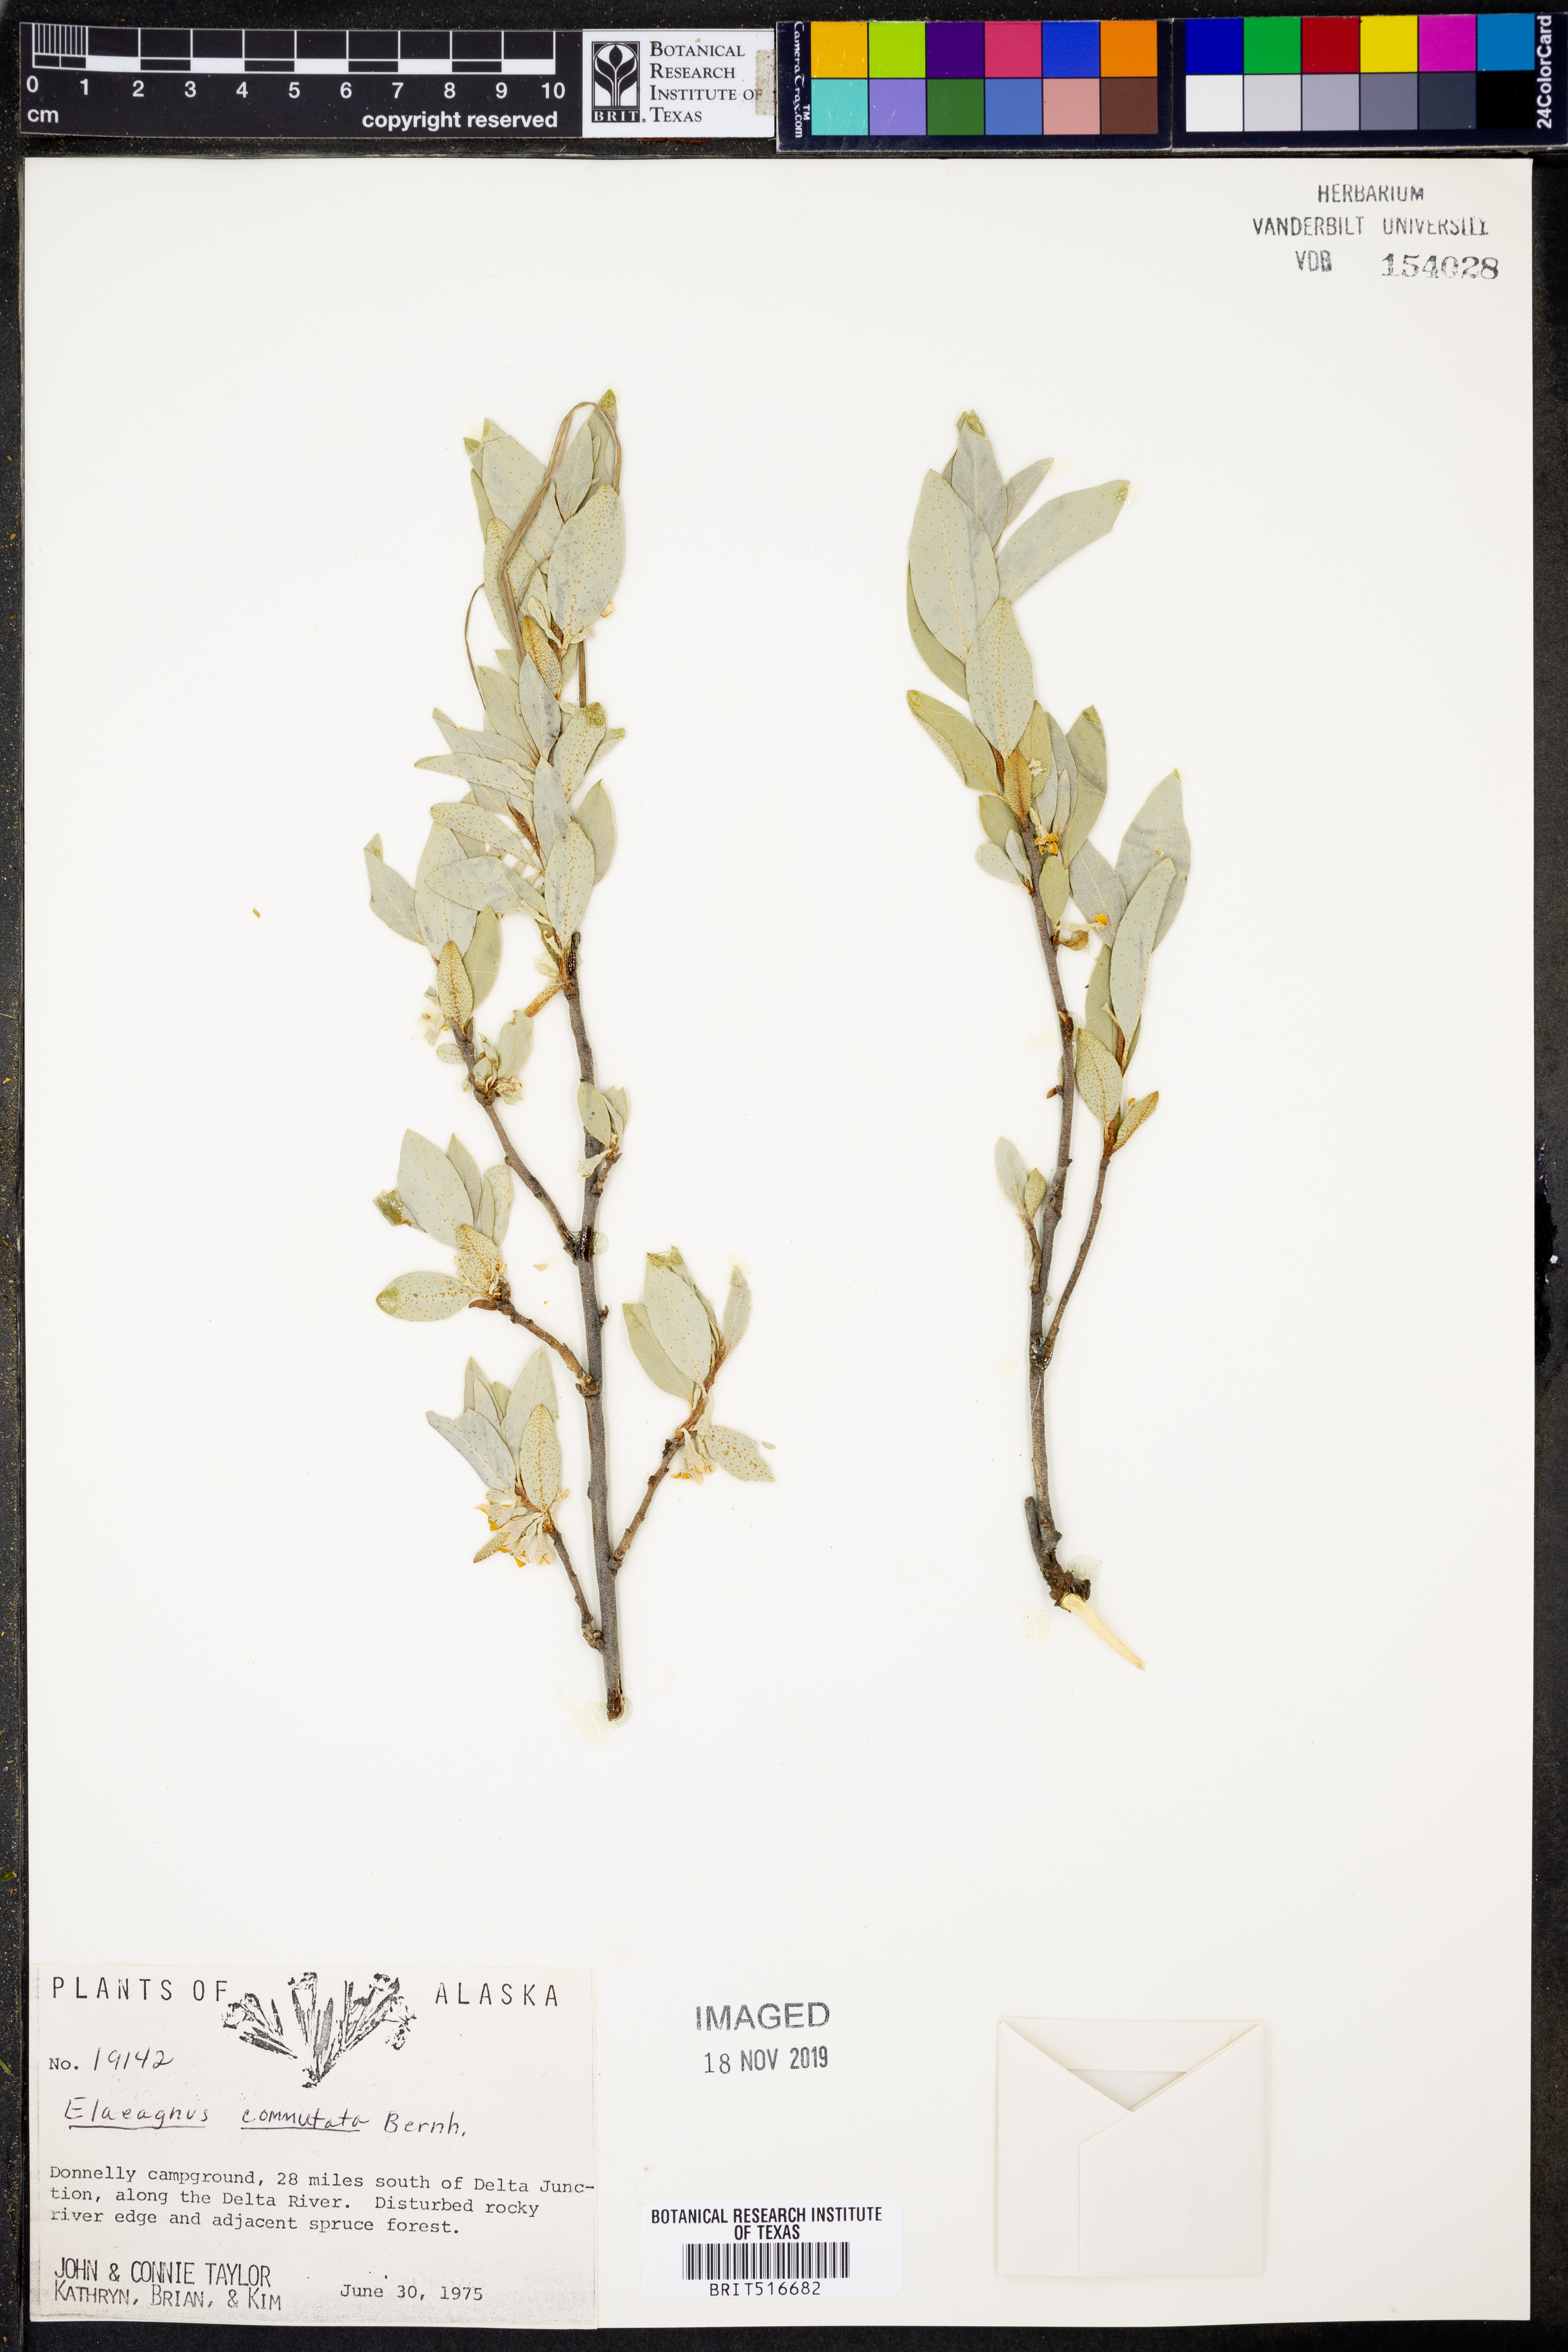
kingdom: Plantae
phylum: Tracheophyta
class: Magnoliopsida
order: Rosales
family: Elaeagnaceae
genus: Elaeagnus
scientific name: Elaeagnus commutata
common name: Silverberry
